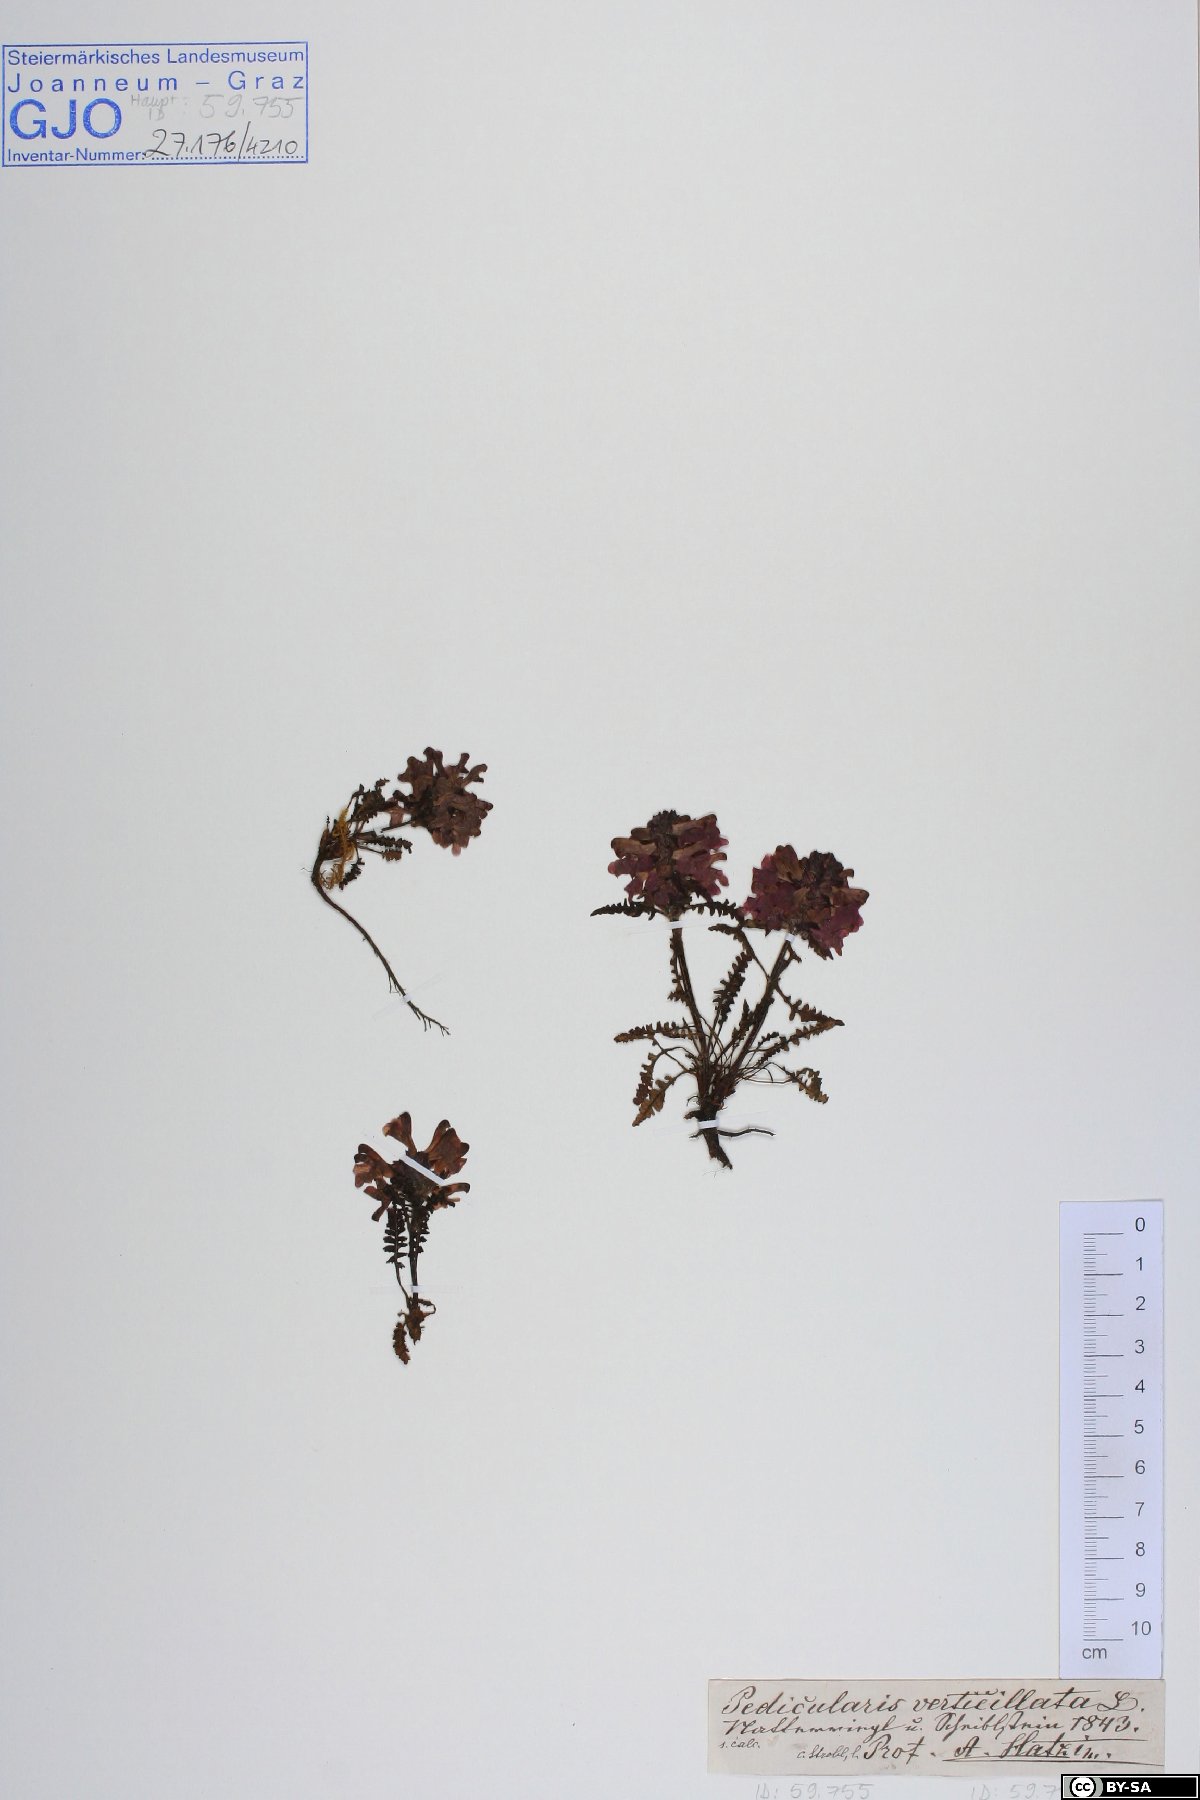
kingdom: Plantae
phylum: Tracheophyta
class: Magnoliopsida
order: Lamiales
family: Orobanchaceae
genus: Pedicularis
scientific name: Pedicularis verticillata
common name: Whorled lousewort
